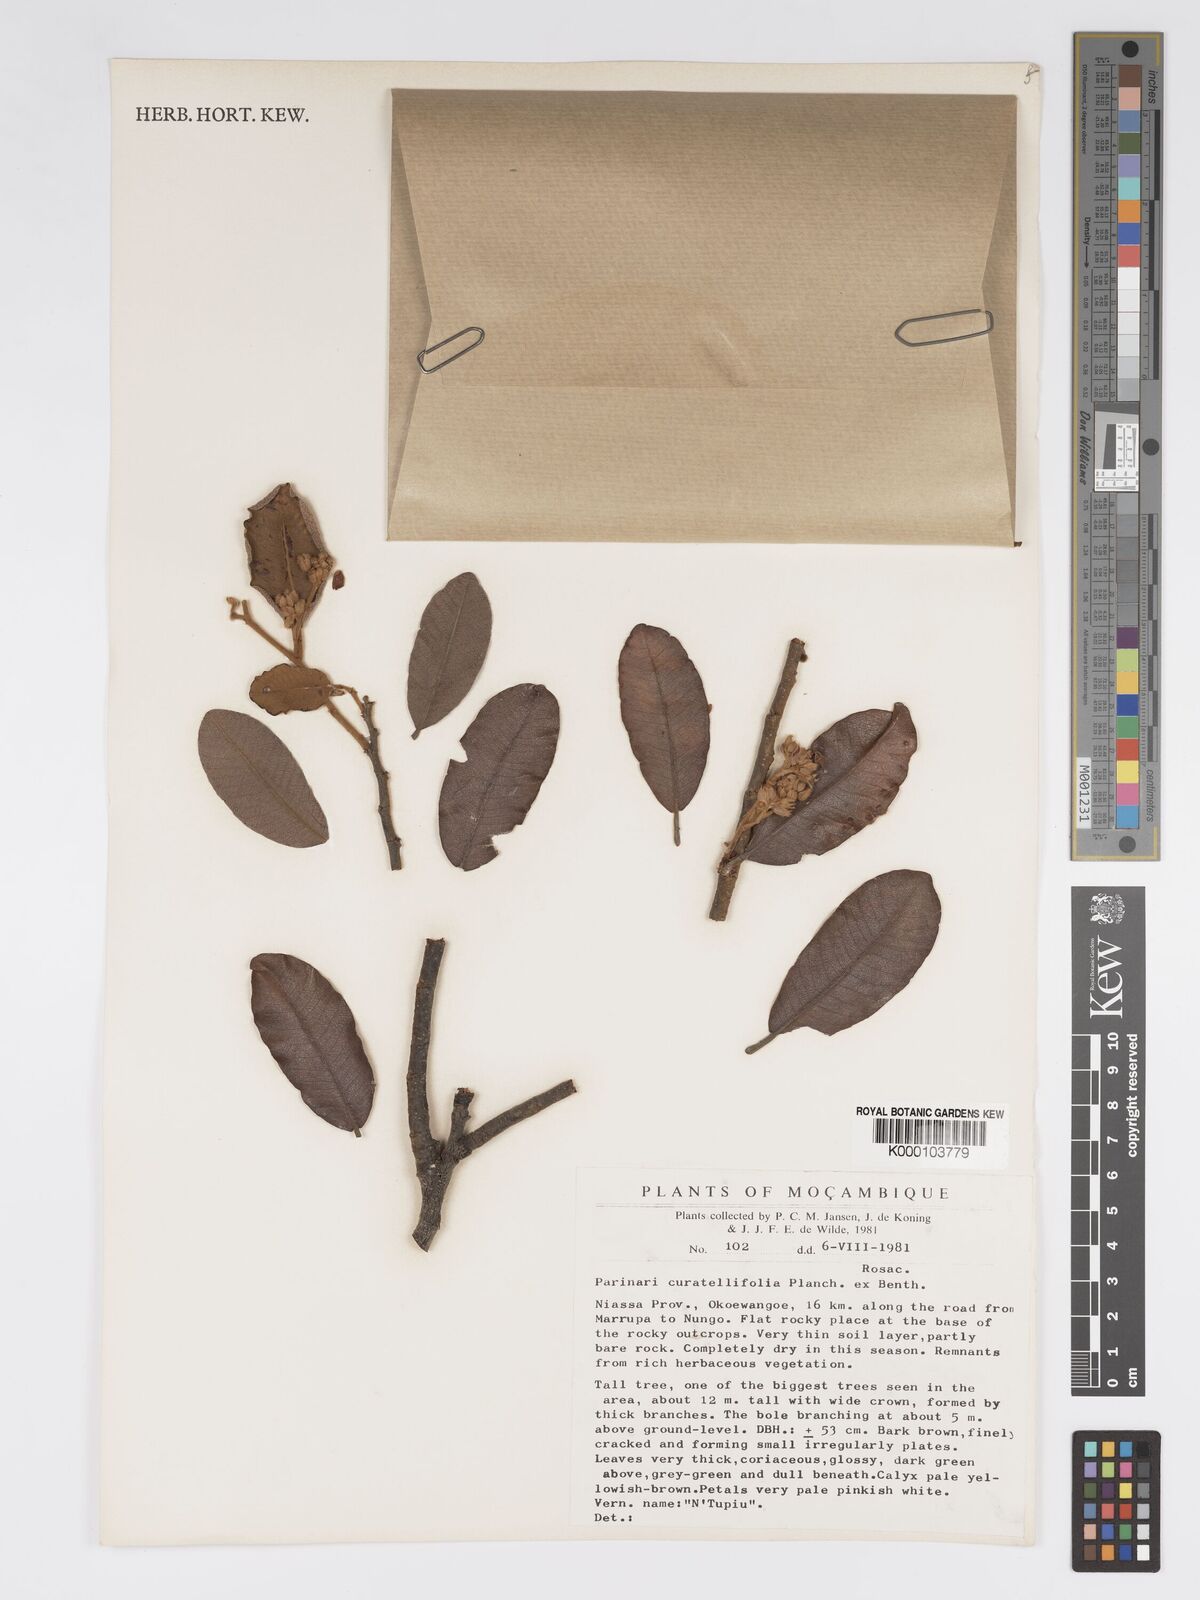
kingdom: Plantae
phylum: Tracheophyta
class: Magnoliopsida
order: Malpighiales
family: Chrysobalanaceae
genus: Parinari
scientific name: Parinari curatellifolia
